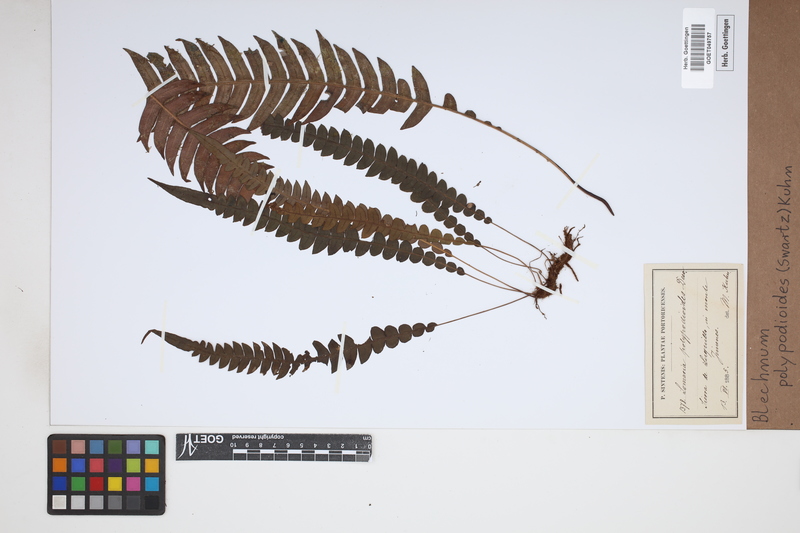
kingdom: Plantae
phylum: Tracheophyta
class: Polypodiopsida
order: Polypodiales
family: Blechnaceae
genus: Lomaridium
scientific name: Lomaridium fragile
